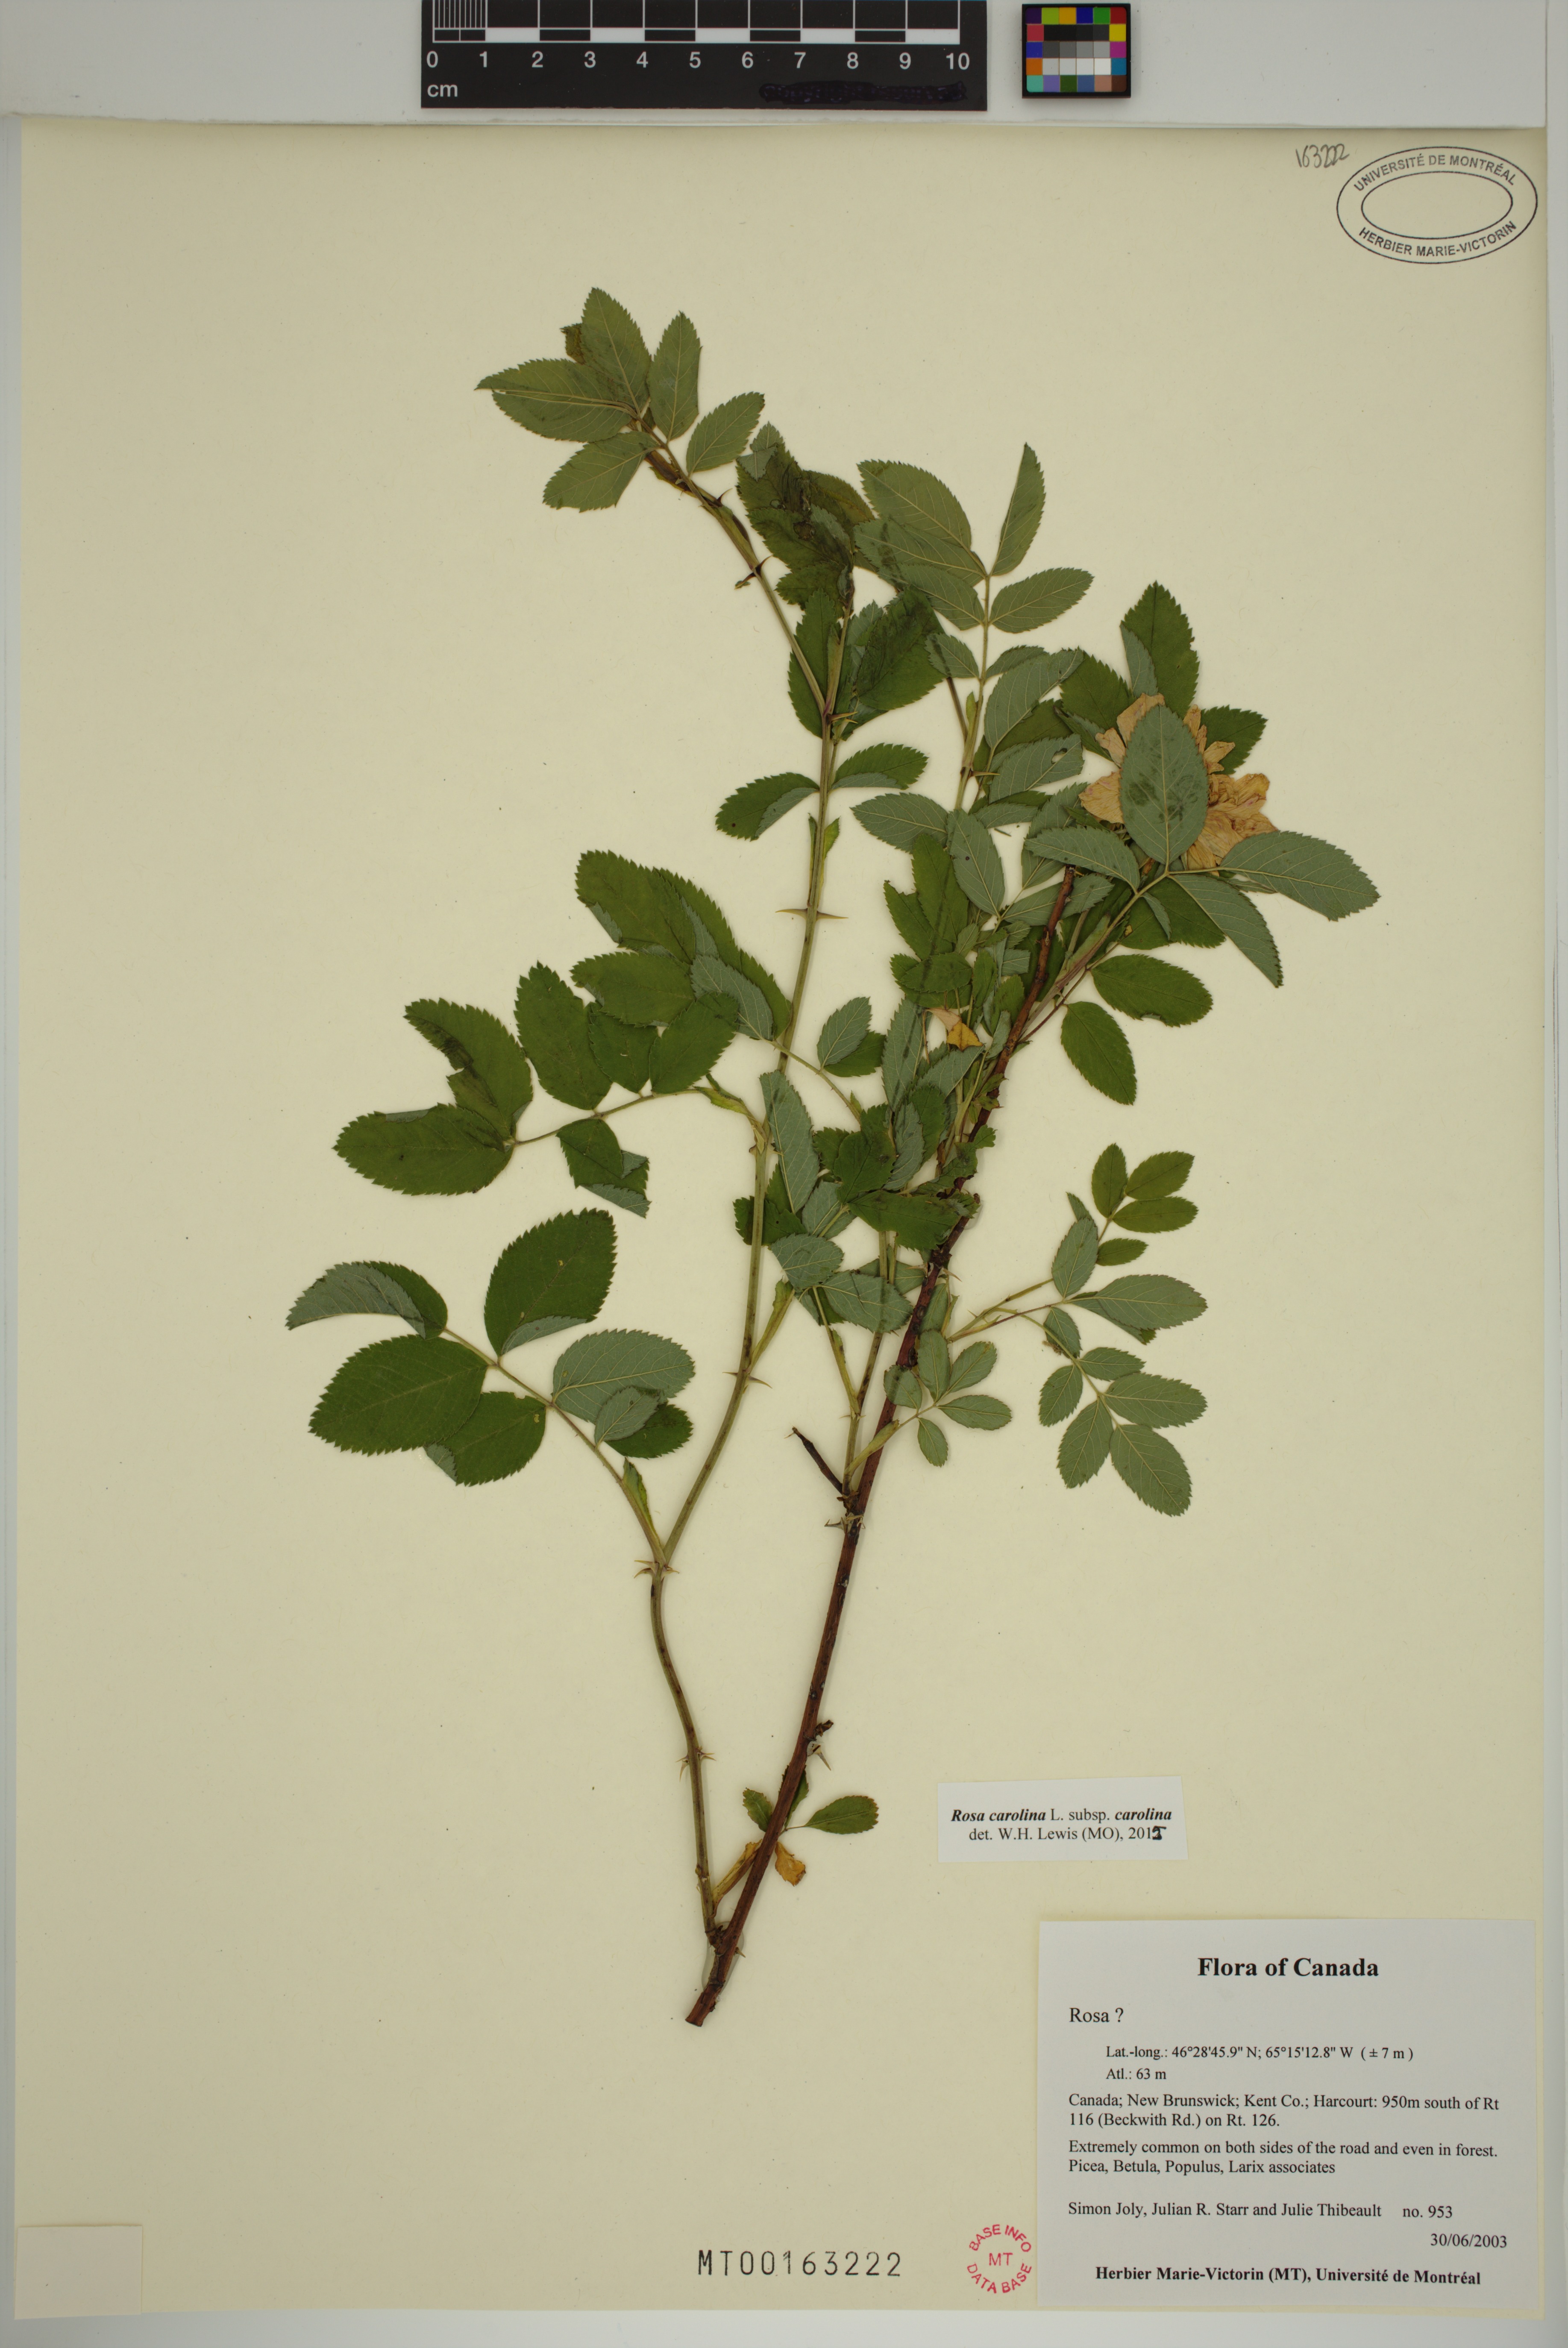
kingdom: Plantae
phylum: Tracheophyta
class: Magnoliopsida
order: Rosales
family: Rosaceae
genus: Rosa
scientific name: Rosa carolina
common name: Pasture rose
